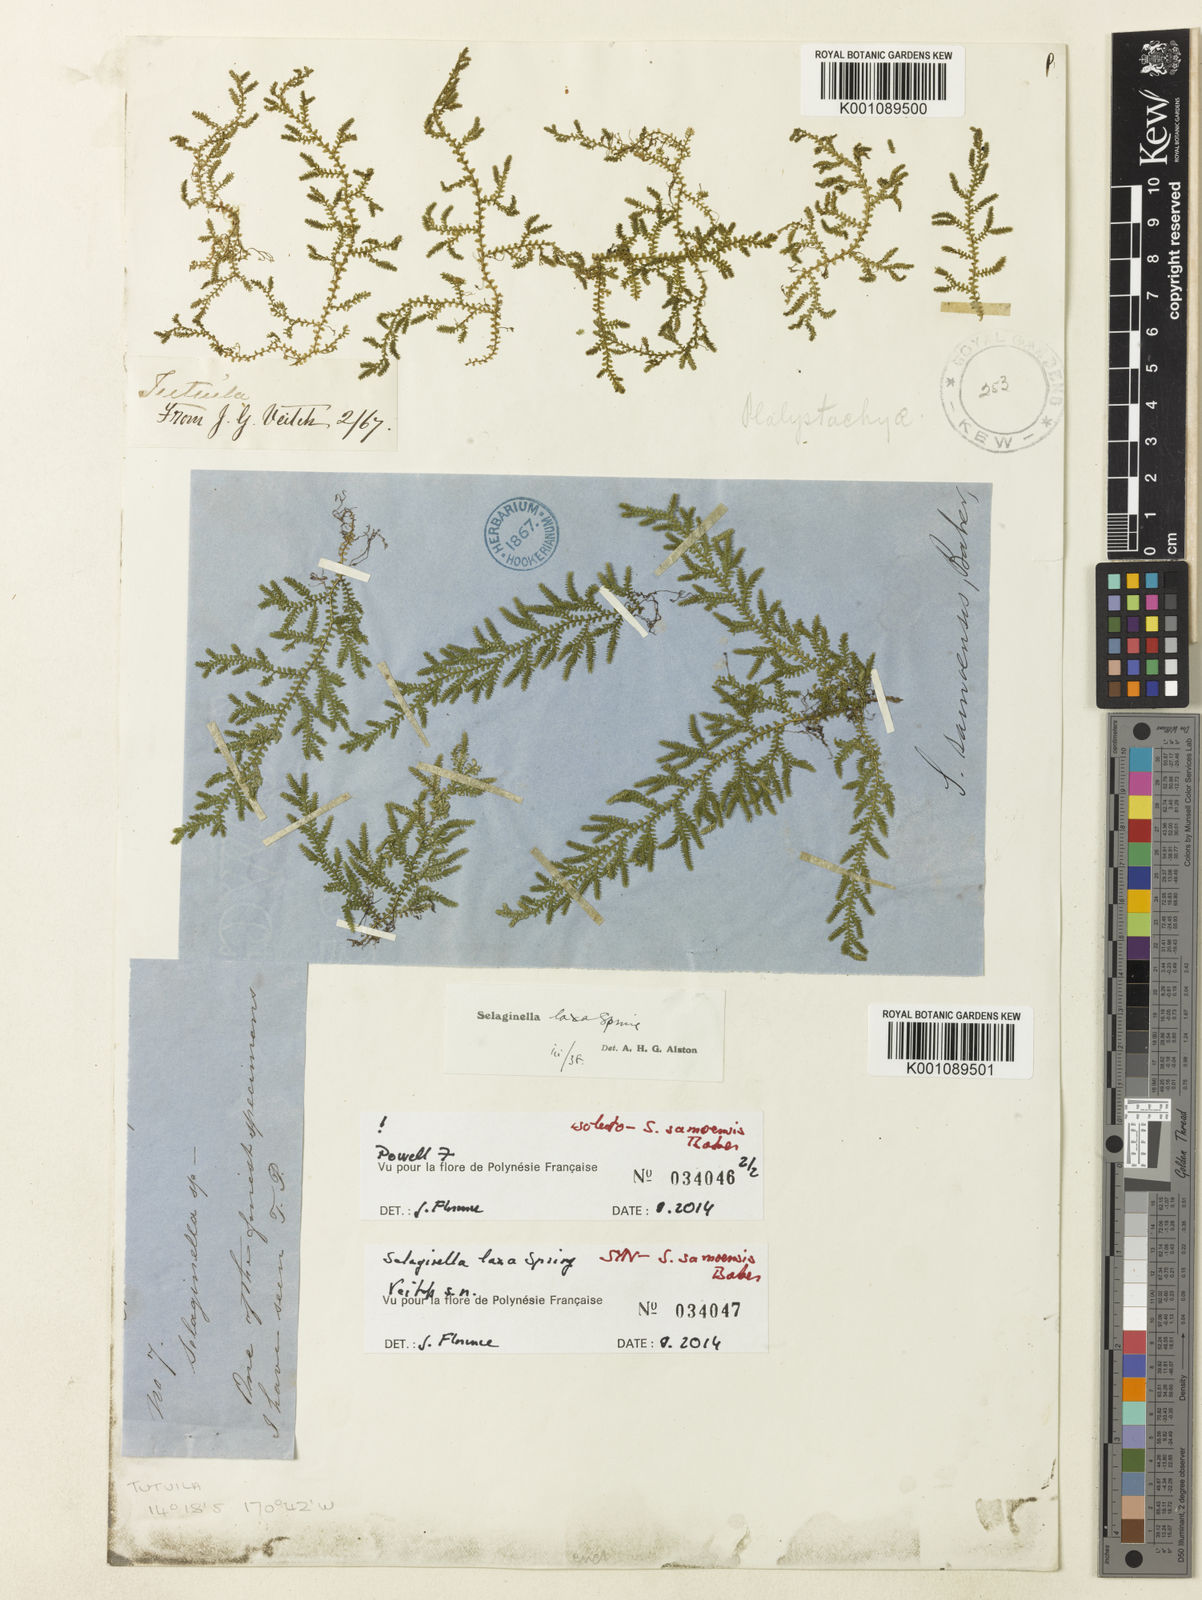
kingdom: Plantae
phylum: Tracheophyta
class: Lycopodiopsida
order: Selaginellales
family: Selaginellaceae
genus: Selaginella
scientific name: Selaginella laxa
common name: Lax spikemoss
